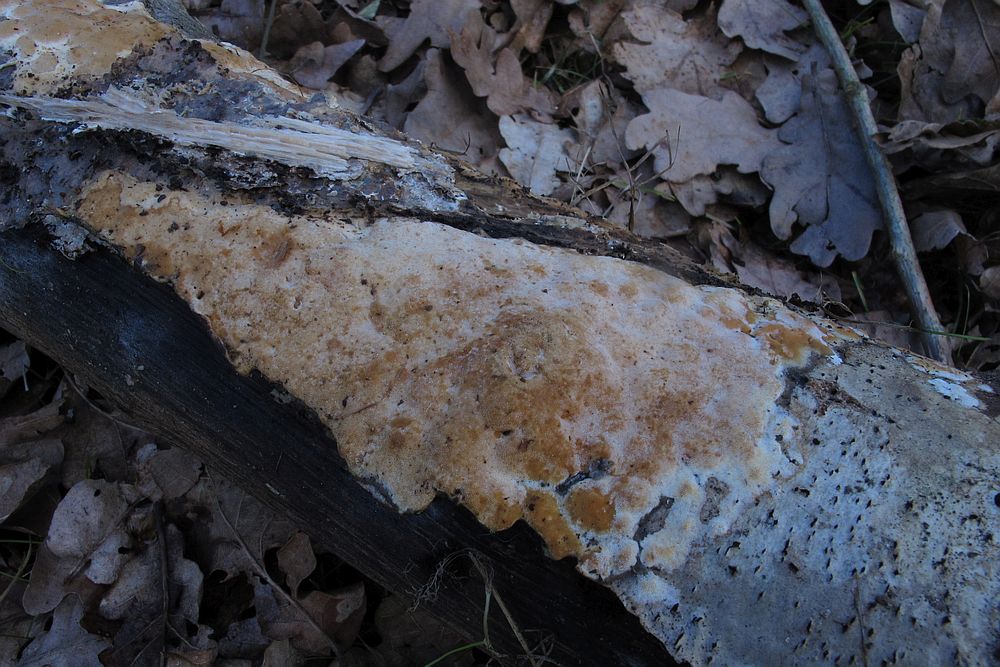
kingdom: Fungi
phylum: Basidiomycota
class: Agaricomycetes
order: Hymenochaetales
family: Schizoporaceae
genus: Xylodon
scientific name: Xylodon flaviporus
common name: gulporet tandsvamp
